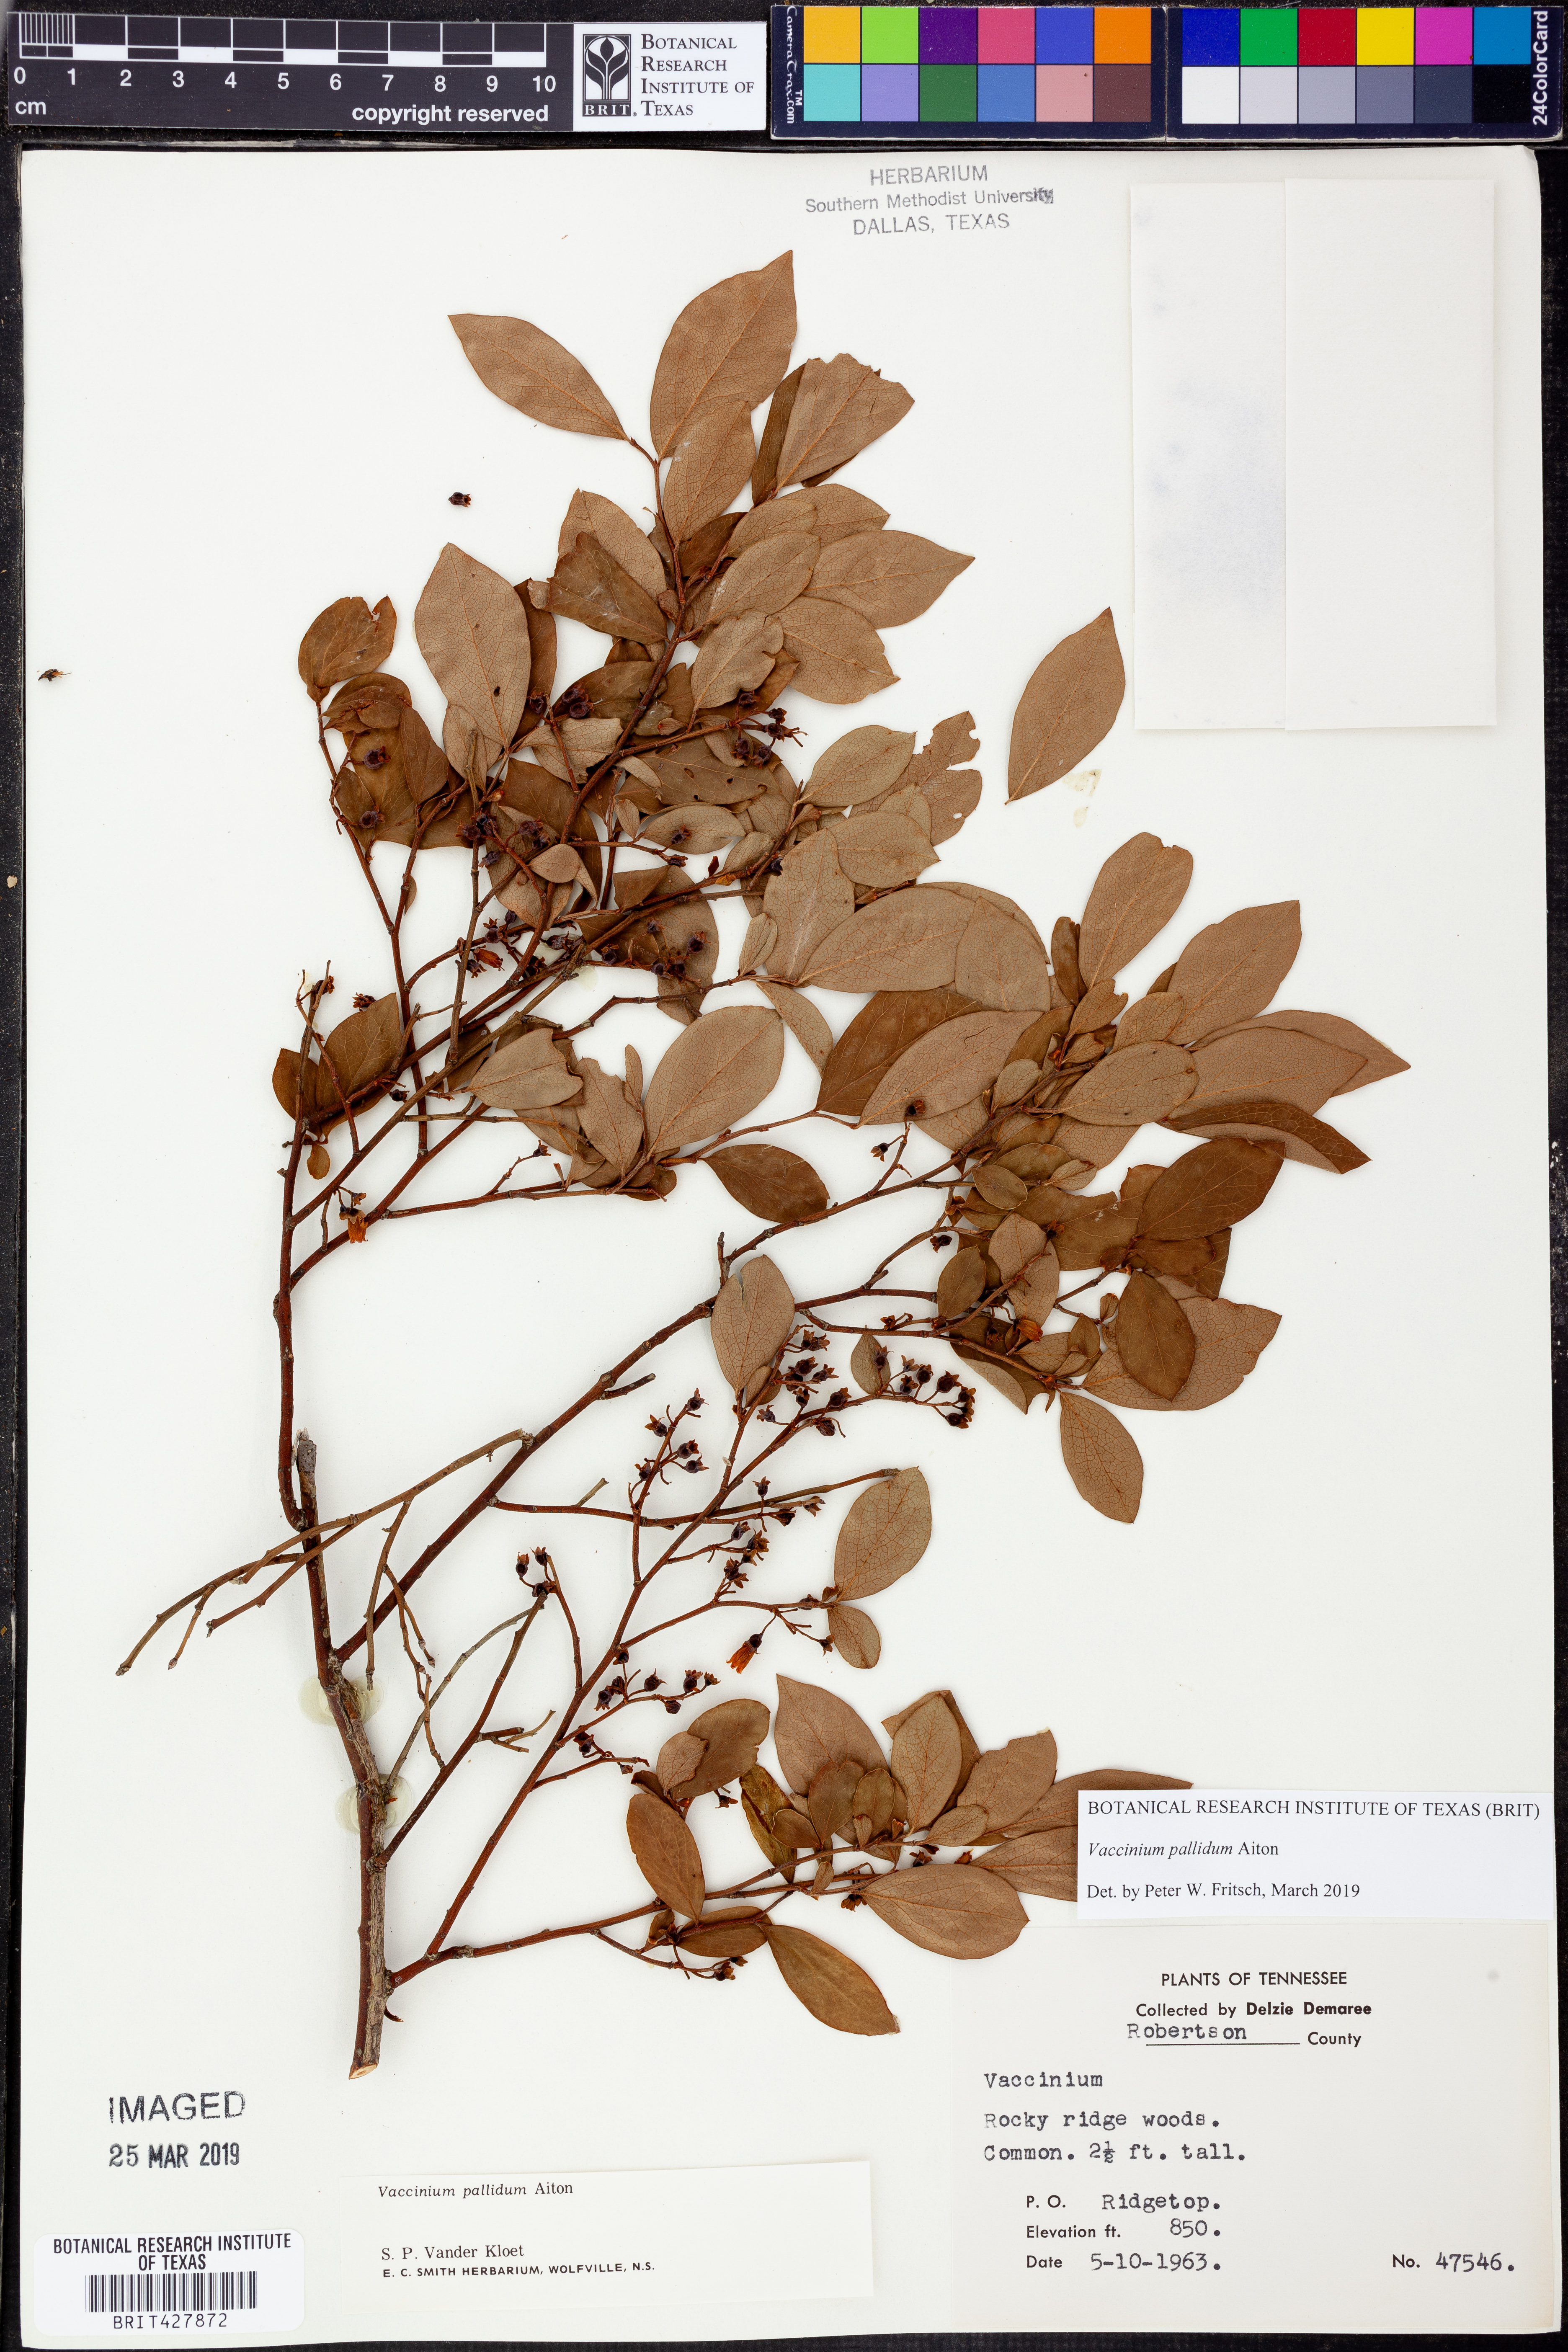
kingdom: Plantae
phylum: Tracheophyta
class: Magnoliopsida
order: Ericales
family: Ericaceae
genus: Vaccinium
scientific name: Vaccinium pallidum
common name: Blue ridge blueberry
